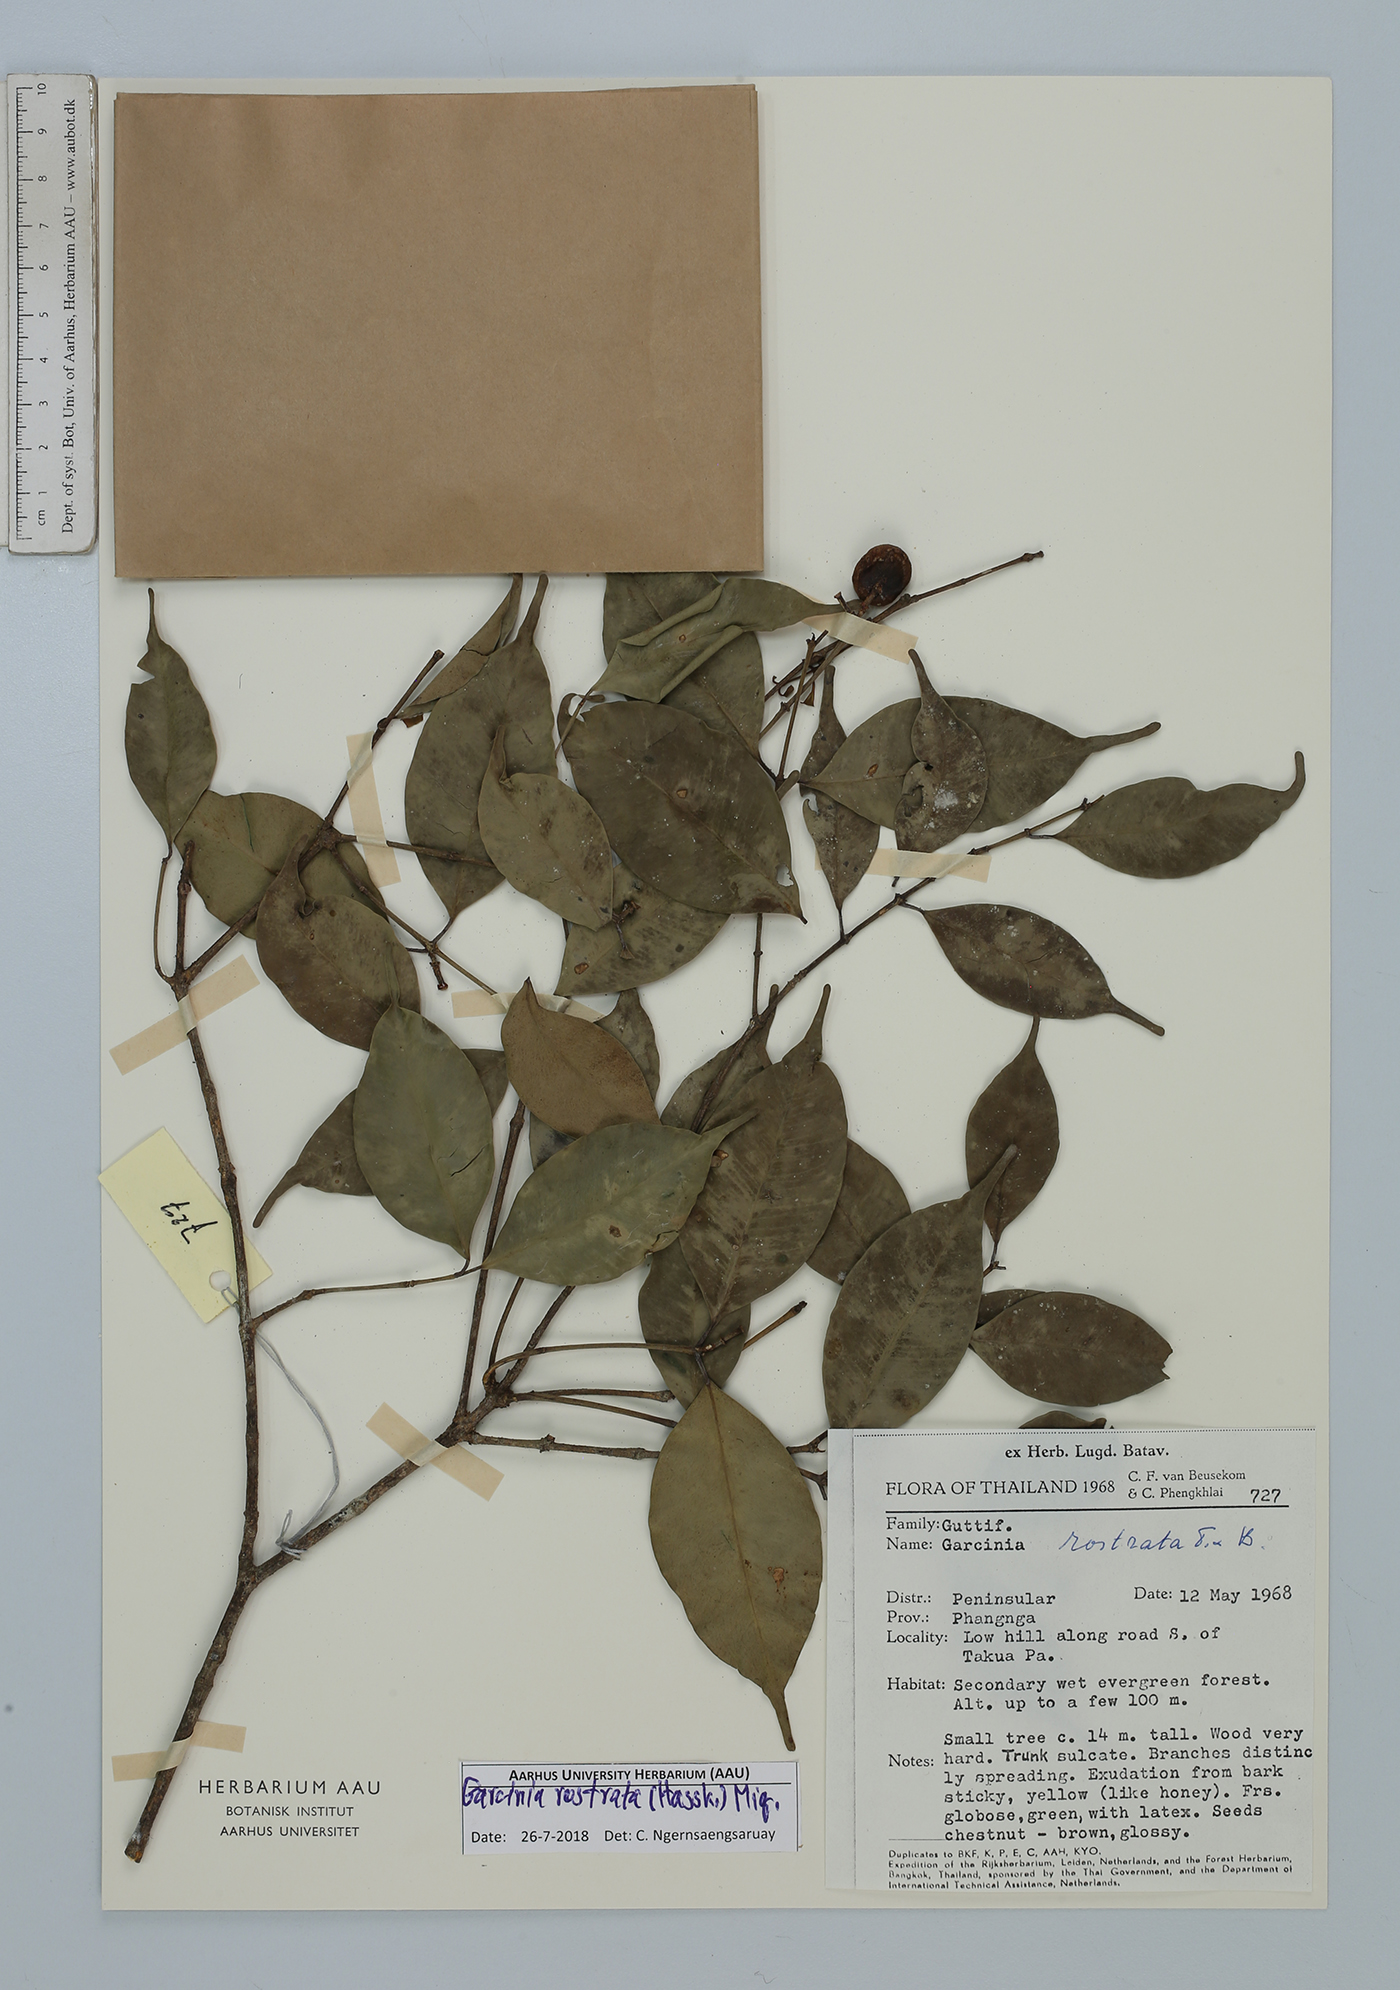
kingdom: Plantae
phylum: Tracheophyta
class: Magnoliopsida
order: Malpighiales
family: Clusiaceae
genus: Garcinia
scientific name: Garcinia rostrata
